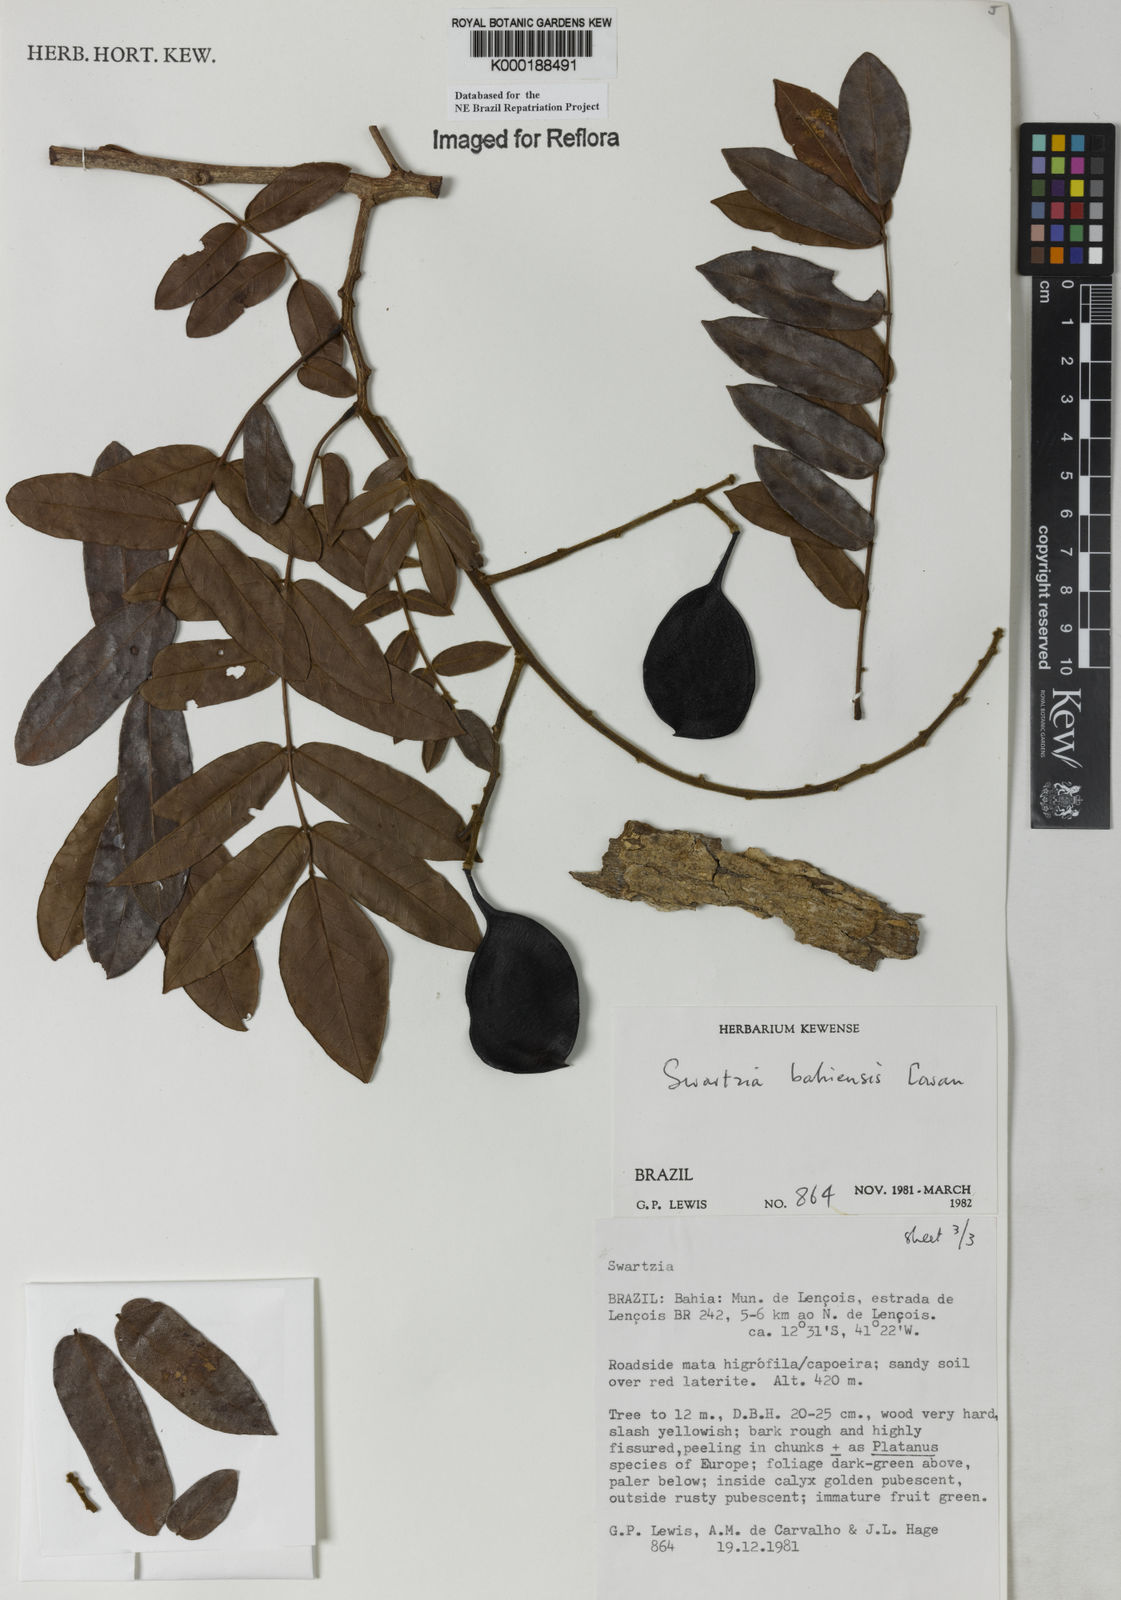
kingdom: Plantae
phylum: Tracheophyta
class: Magnoliopsida
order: Fabales
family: Fabaceae
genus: Swartzia
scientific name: Swartzia bahiensis
